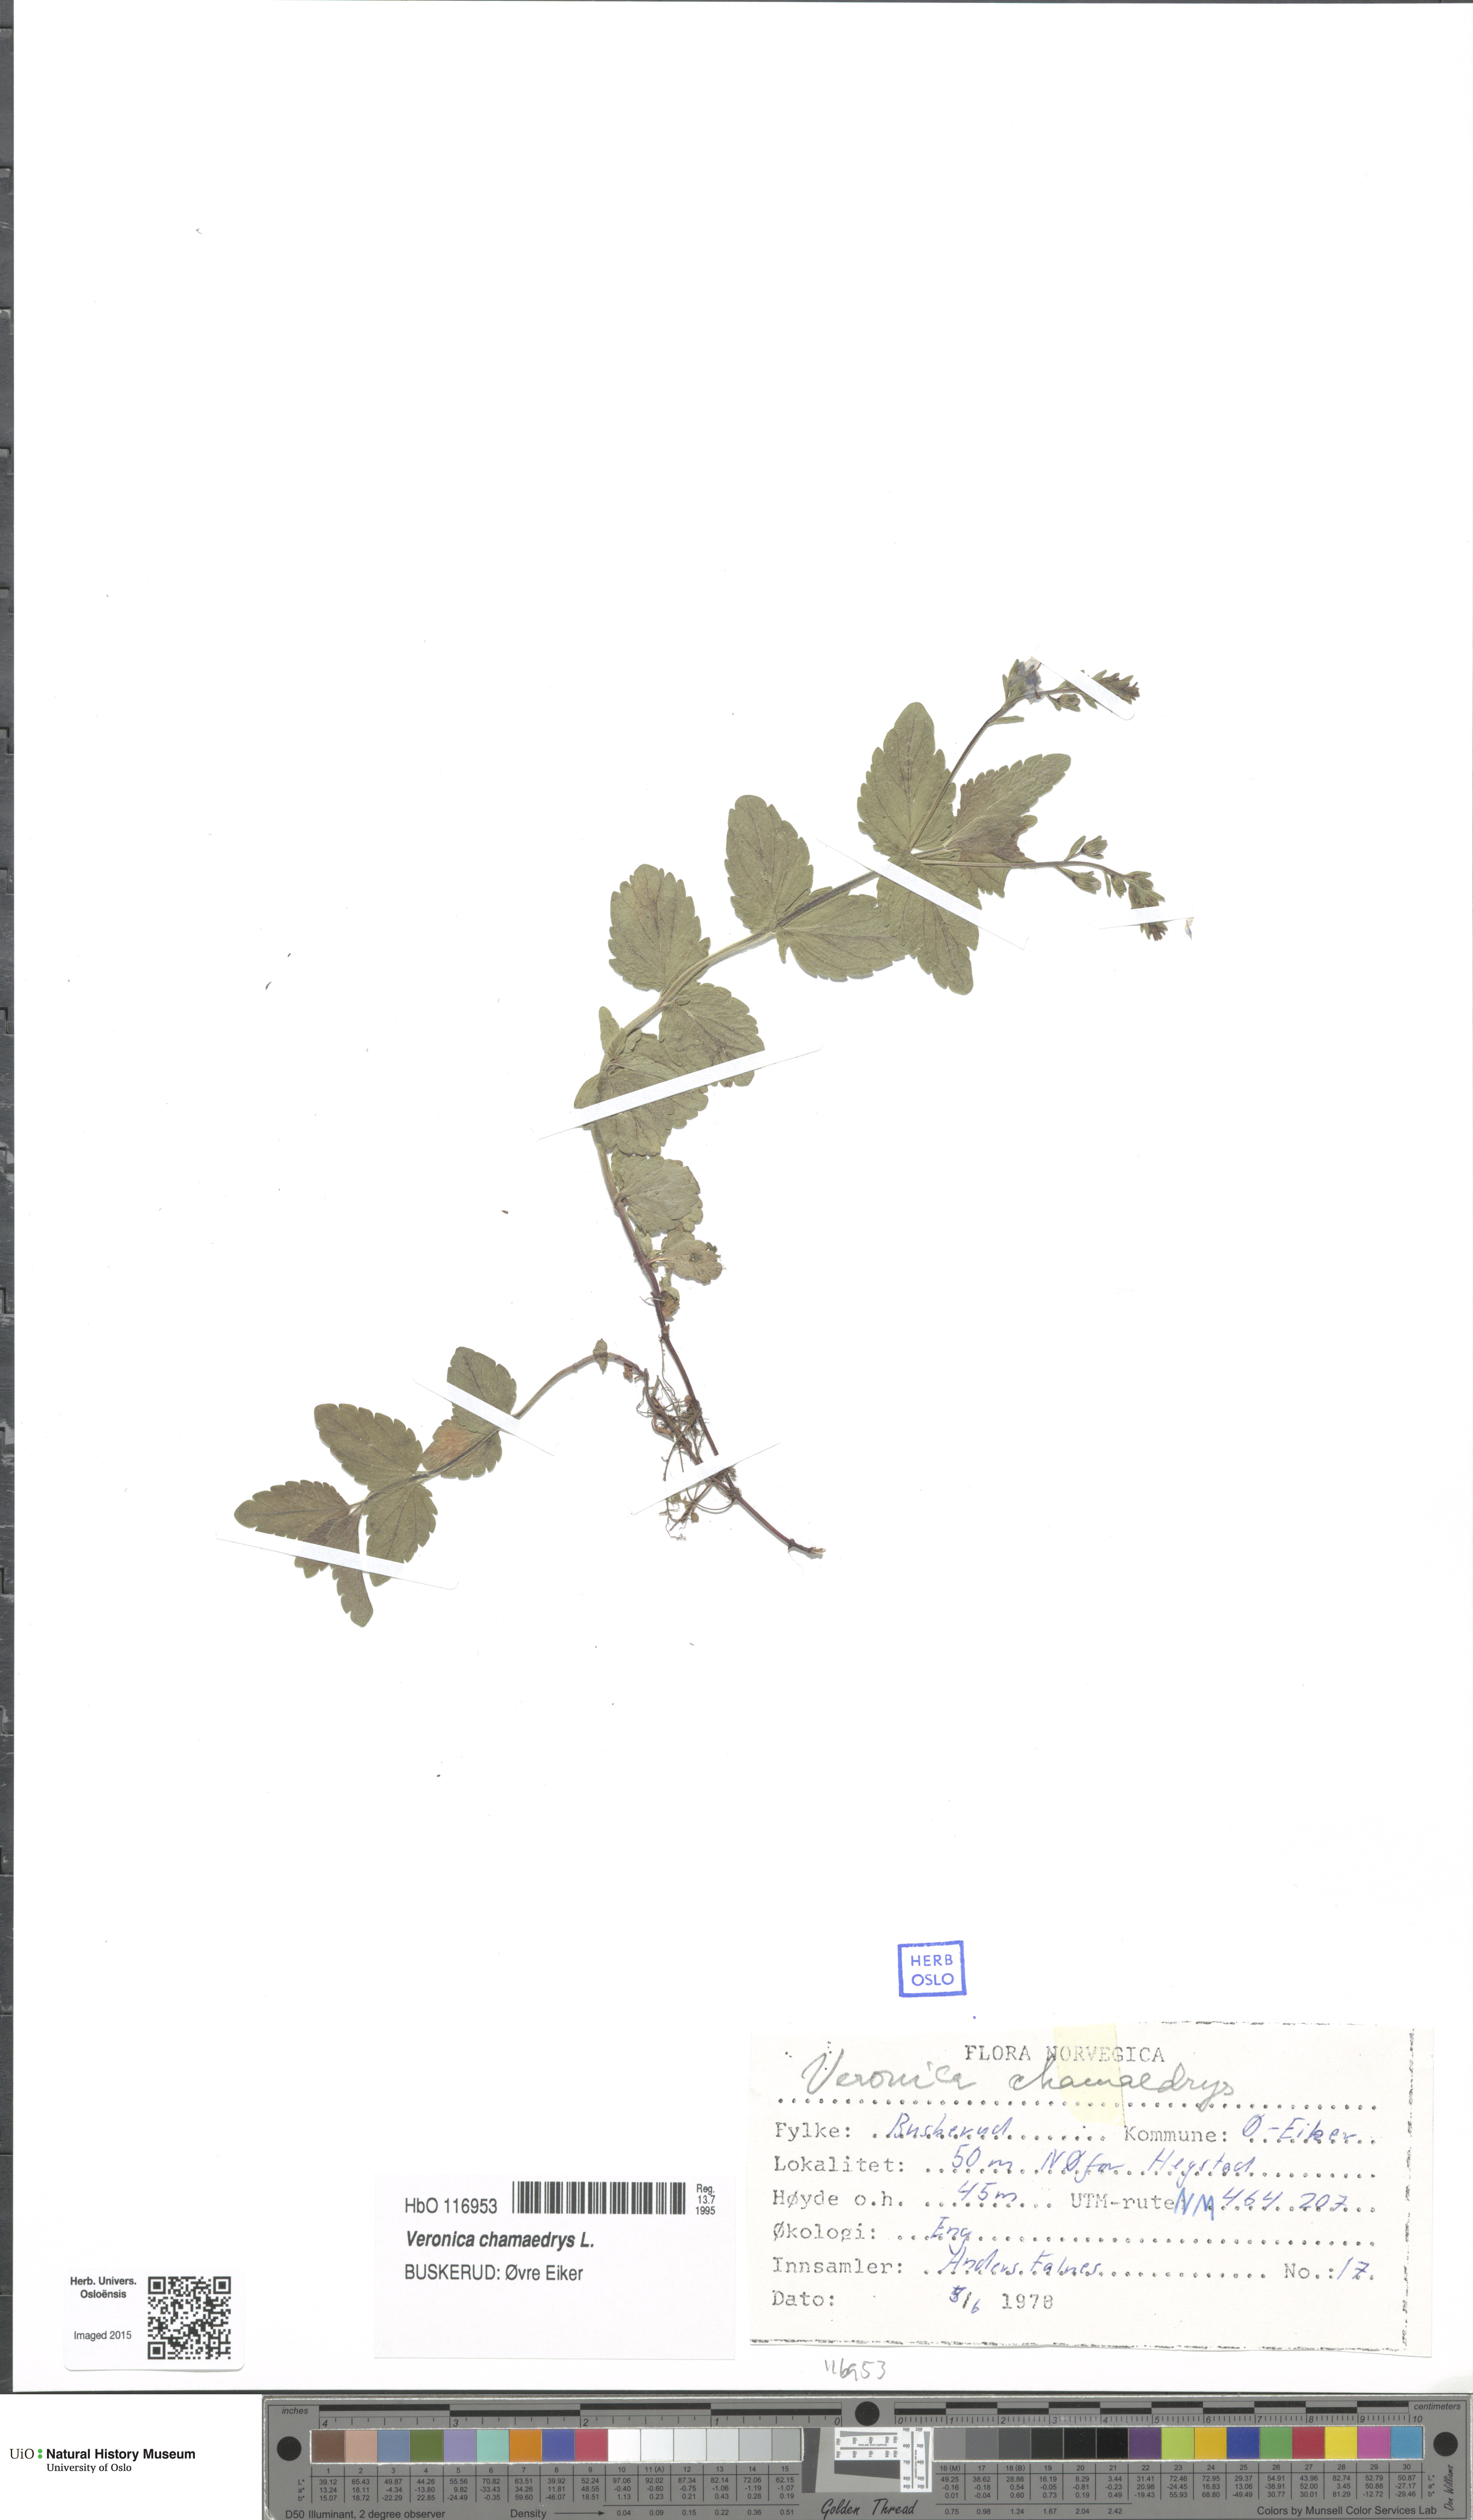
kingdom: Plantae
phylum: Tracheophyta
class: Magnoliopsida
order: Lamiales
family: Plantaginaceae
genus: Veronica
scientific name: Veronica chamaedrys
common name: Germander speedwell
